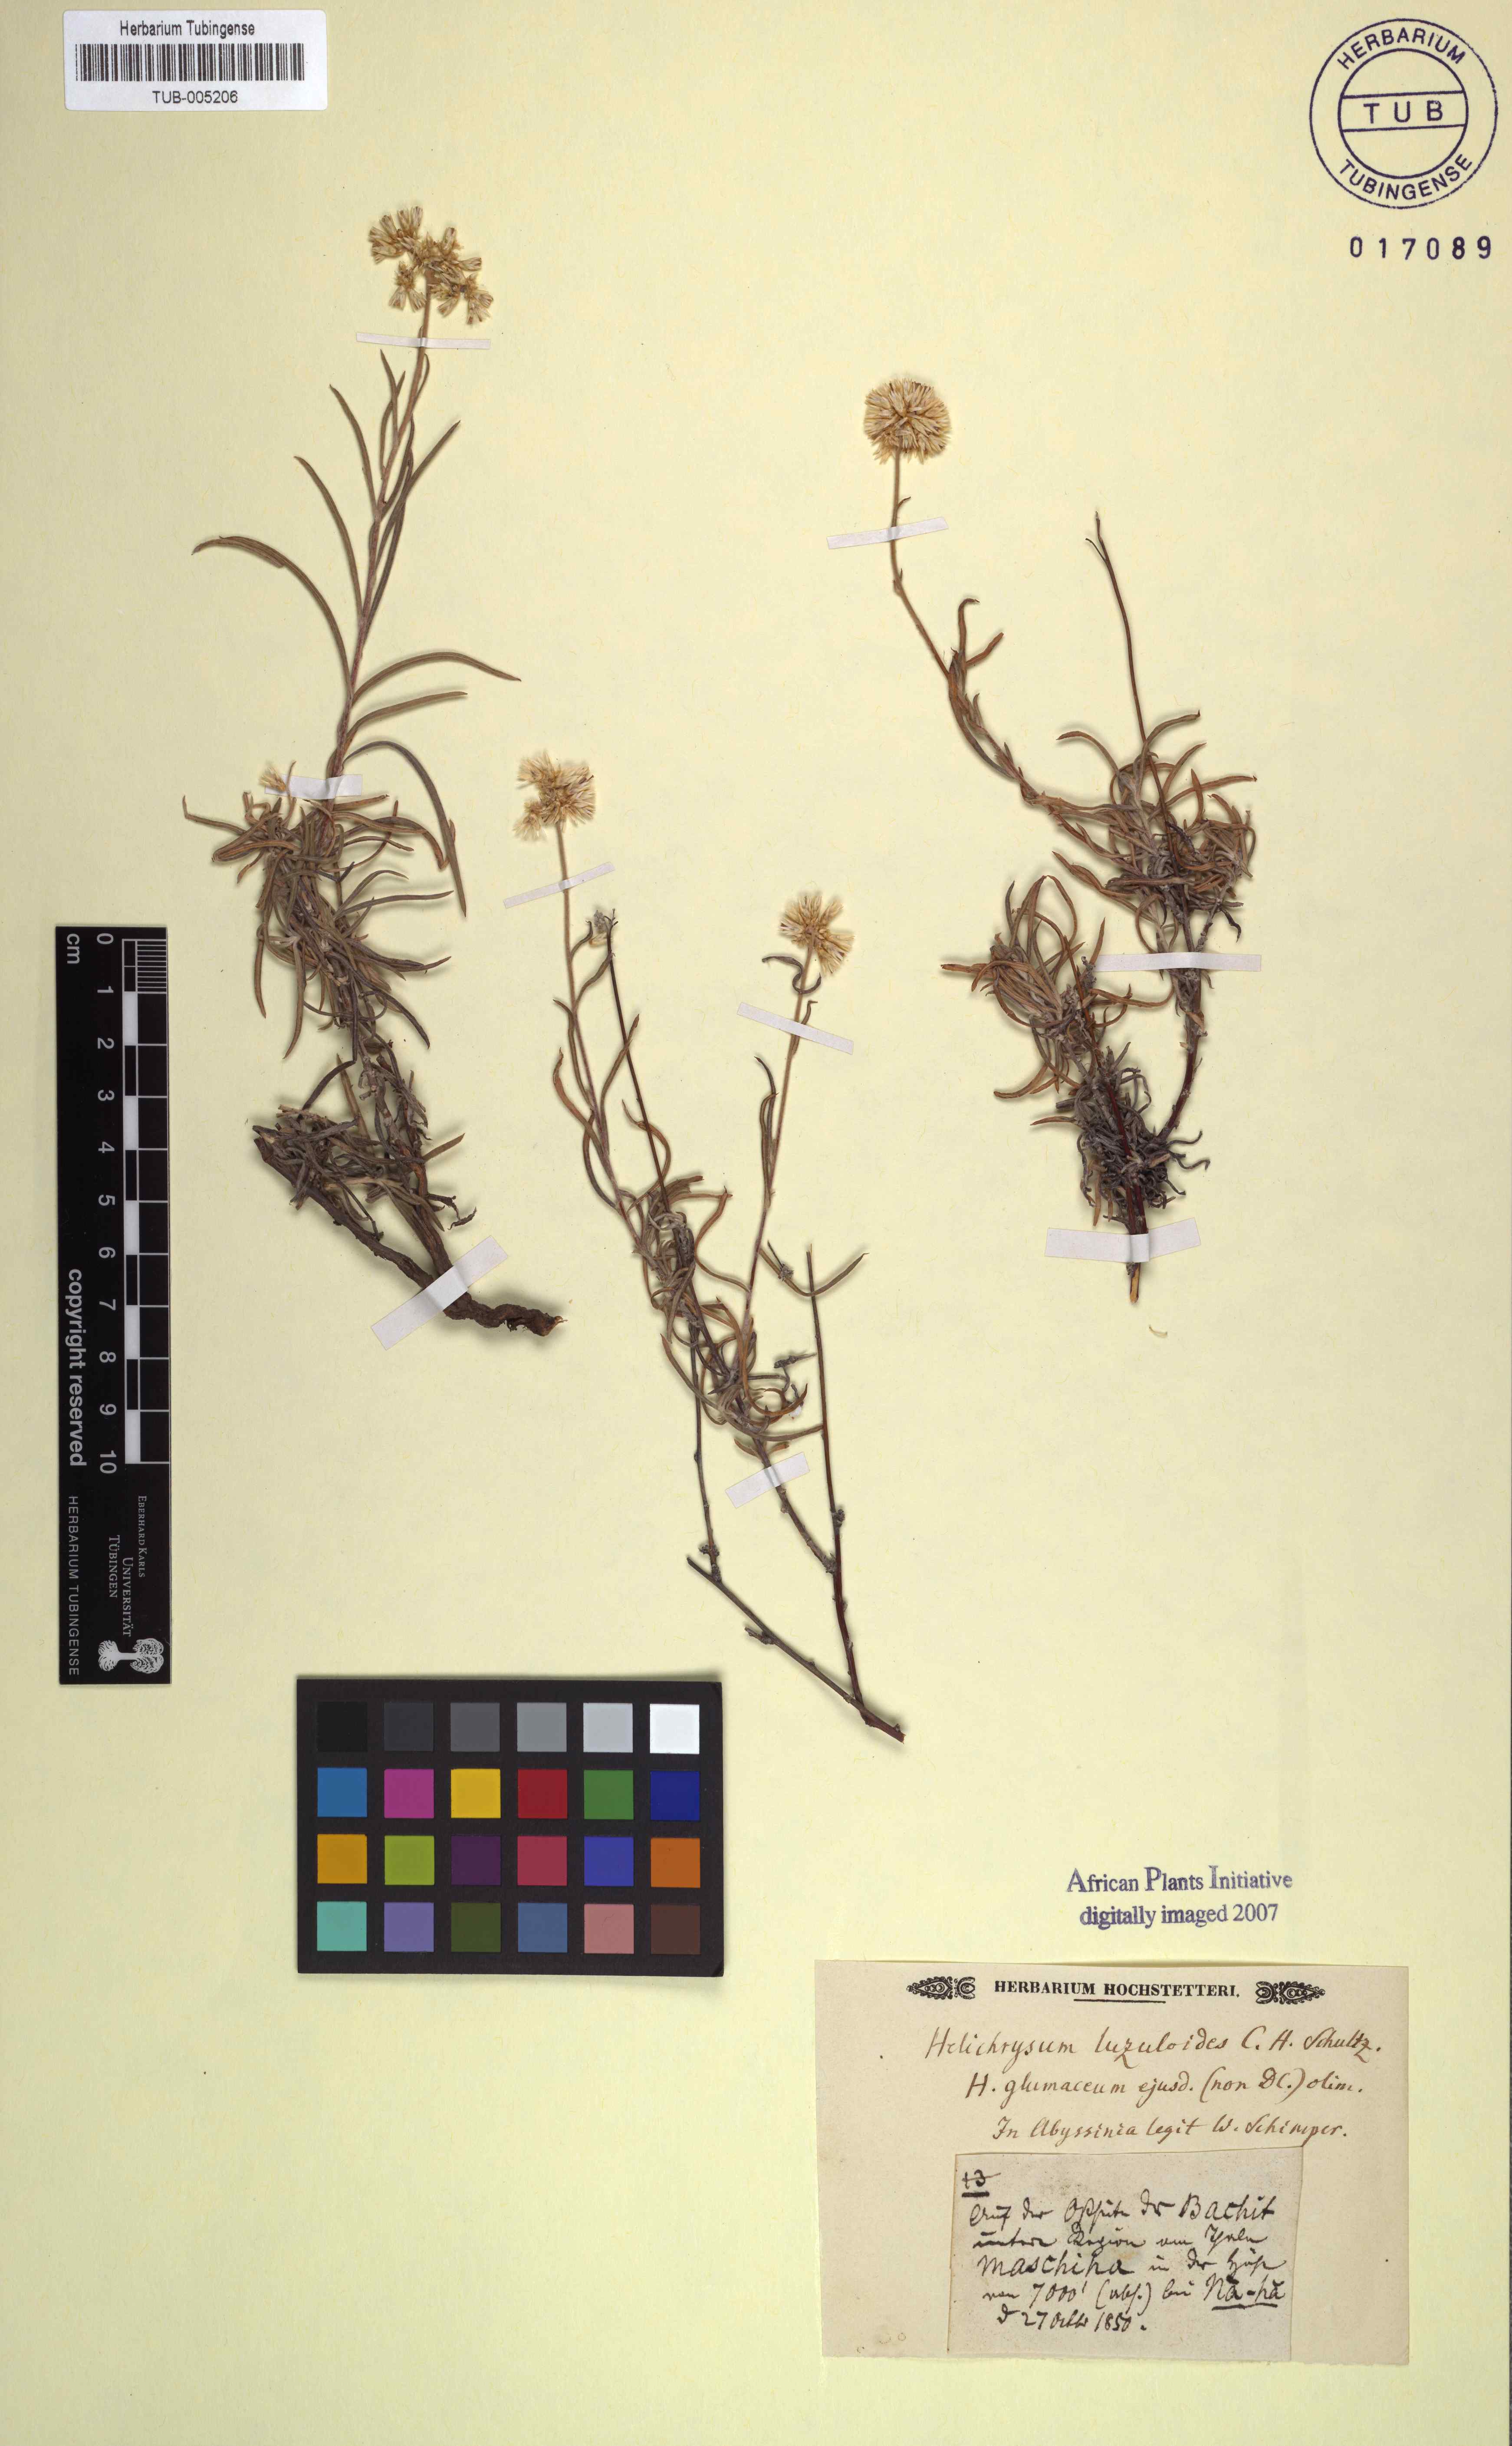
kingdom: Plantae
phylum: Tracheophyta
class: Magnoliopsida
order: Asterales
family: Asteraceae
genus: Helichrysum
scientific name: Helichrysum glumaceum
